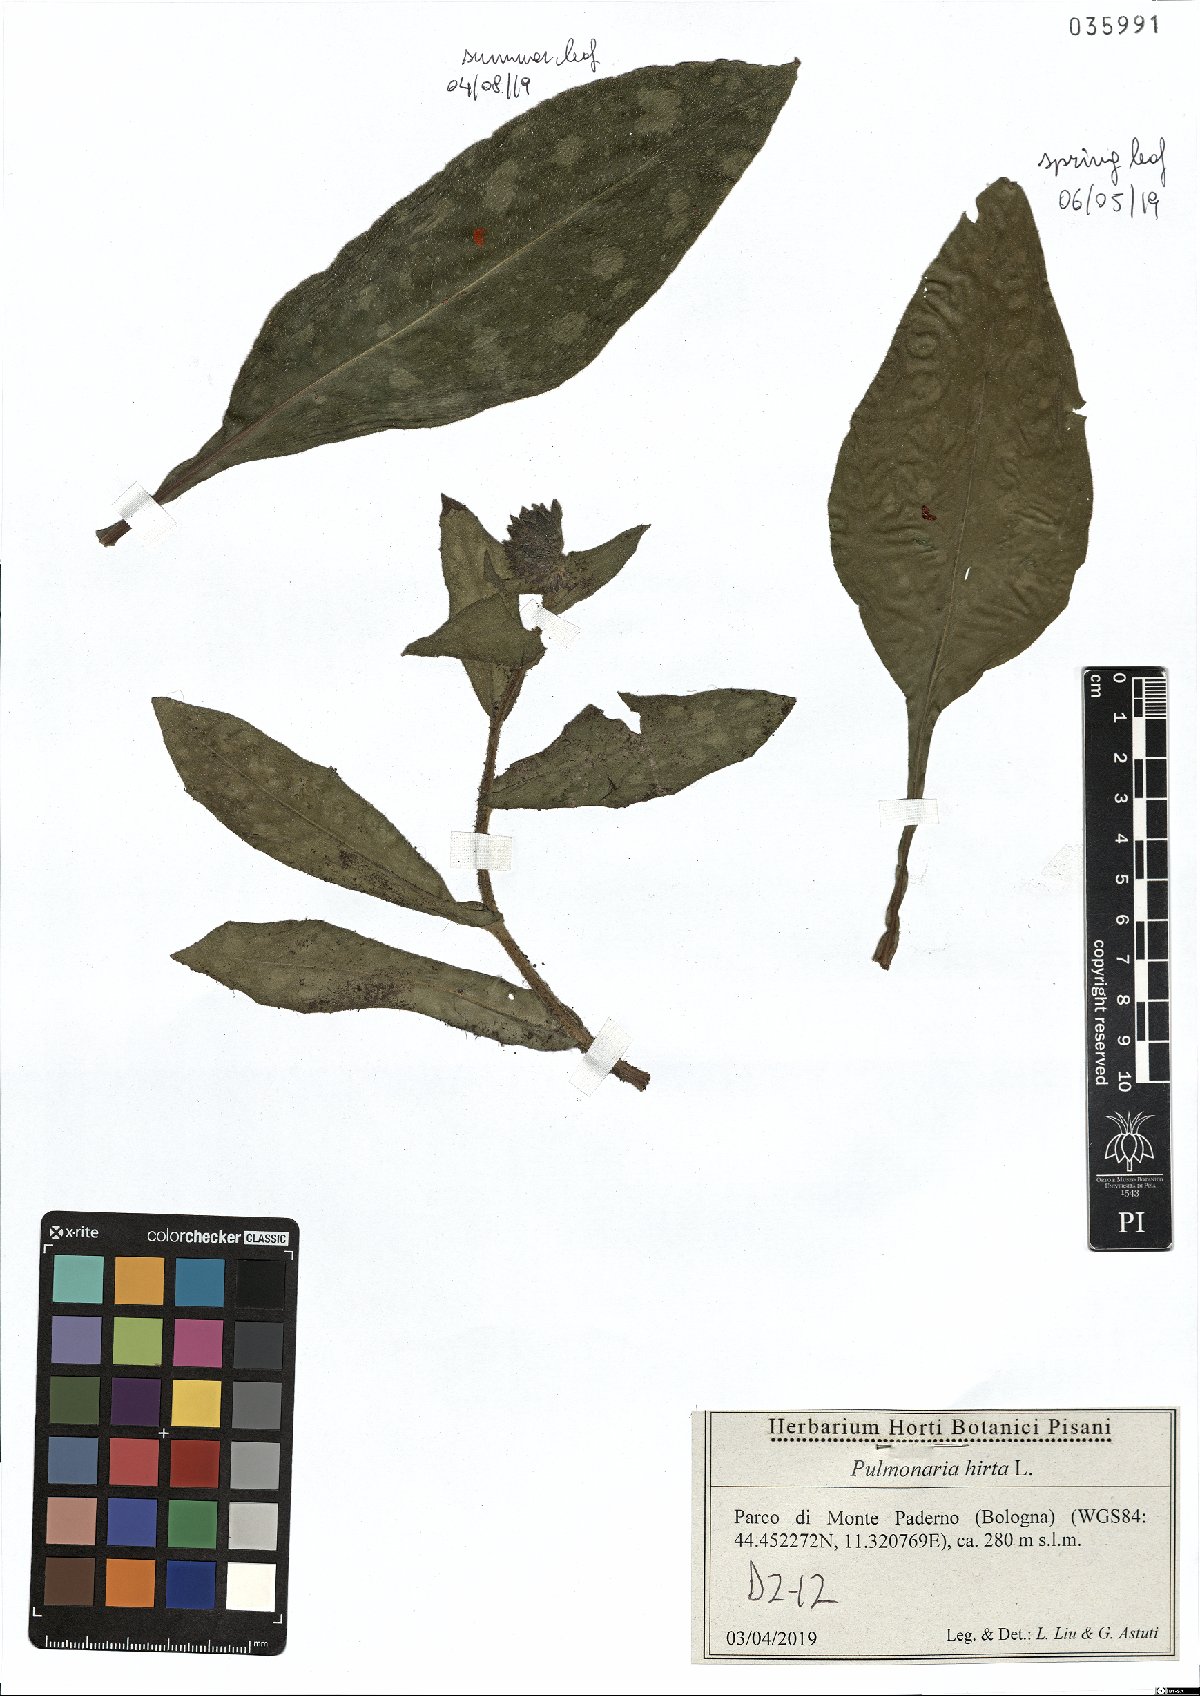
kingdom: Plantae
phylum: Tracheophyta
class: Magnoliopsida
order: Boraginales
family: Boraginaceae
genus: Pulmonaria
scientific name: Pulmonaria hirta
